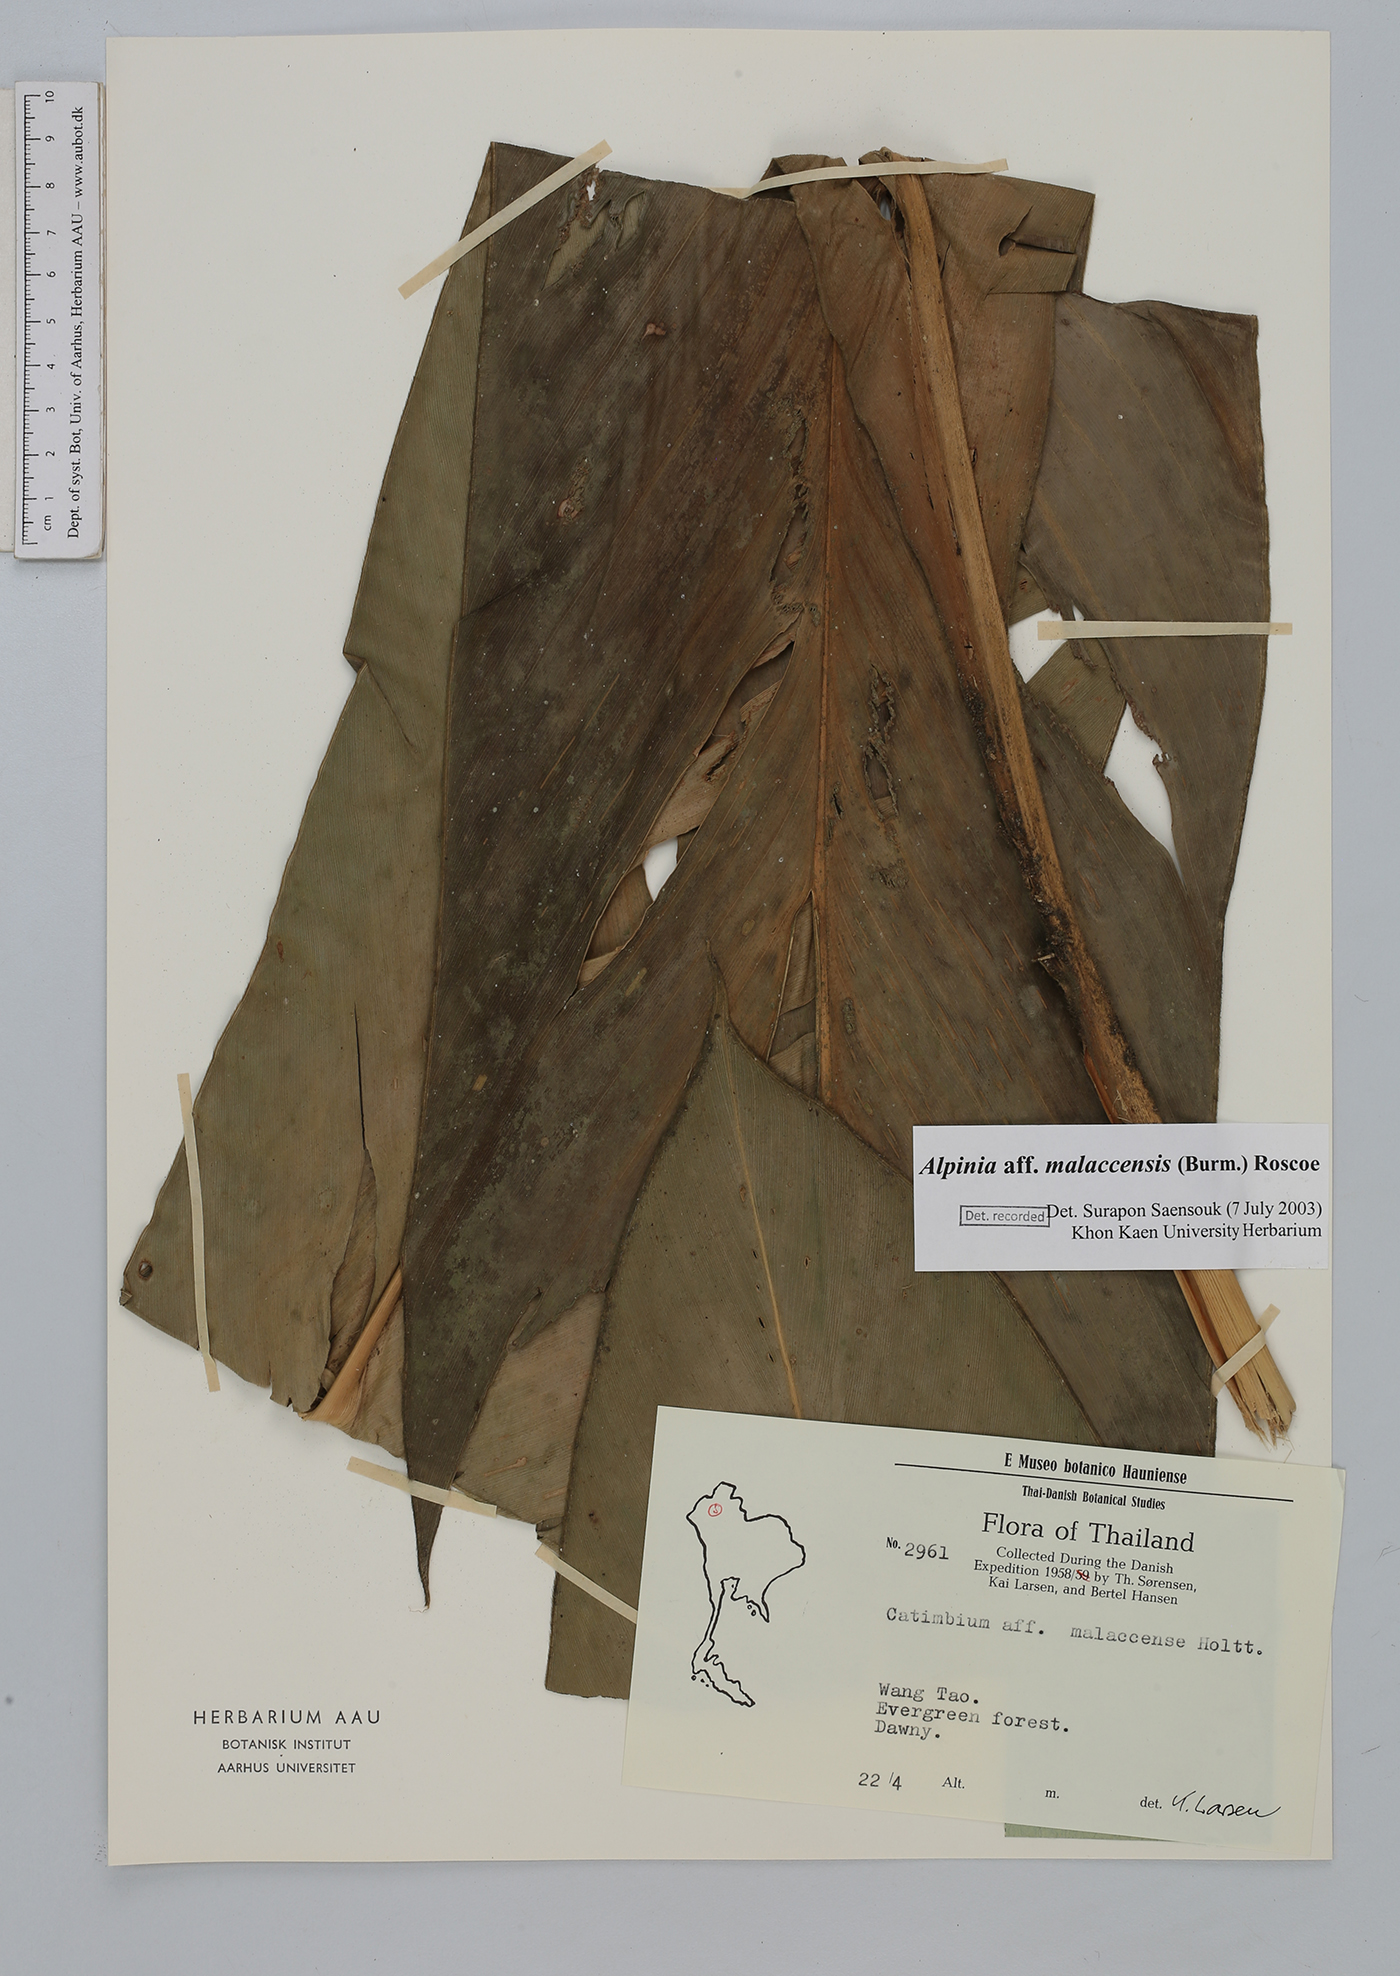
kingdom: Plantae
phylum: Tracheophyta
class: Liliopsida
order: Zingiberales
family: Zingiberaceae
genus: Alpinia
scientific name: Alpinia malaccensis
